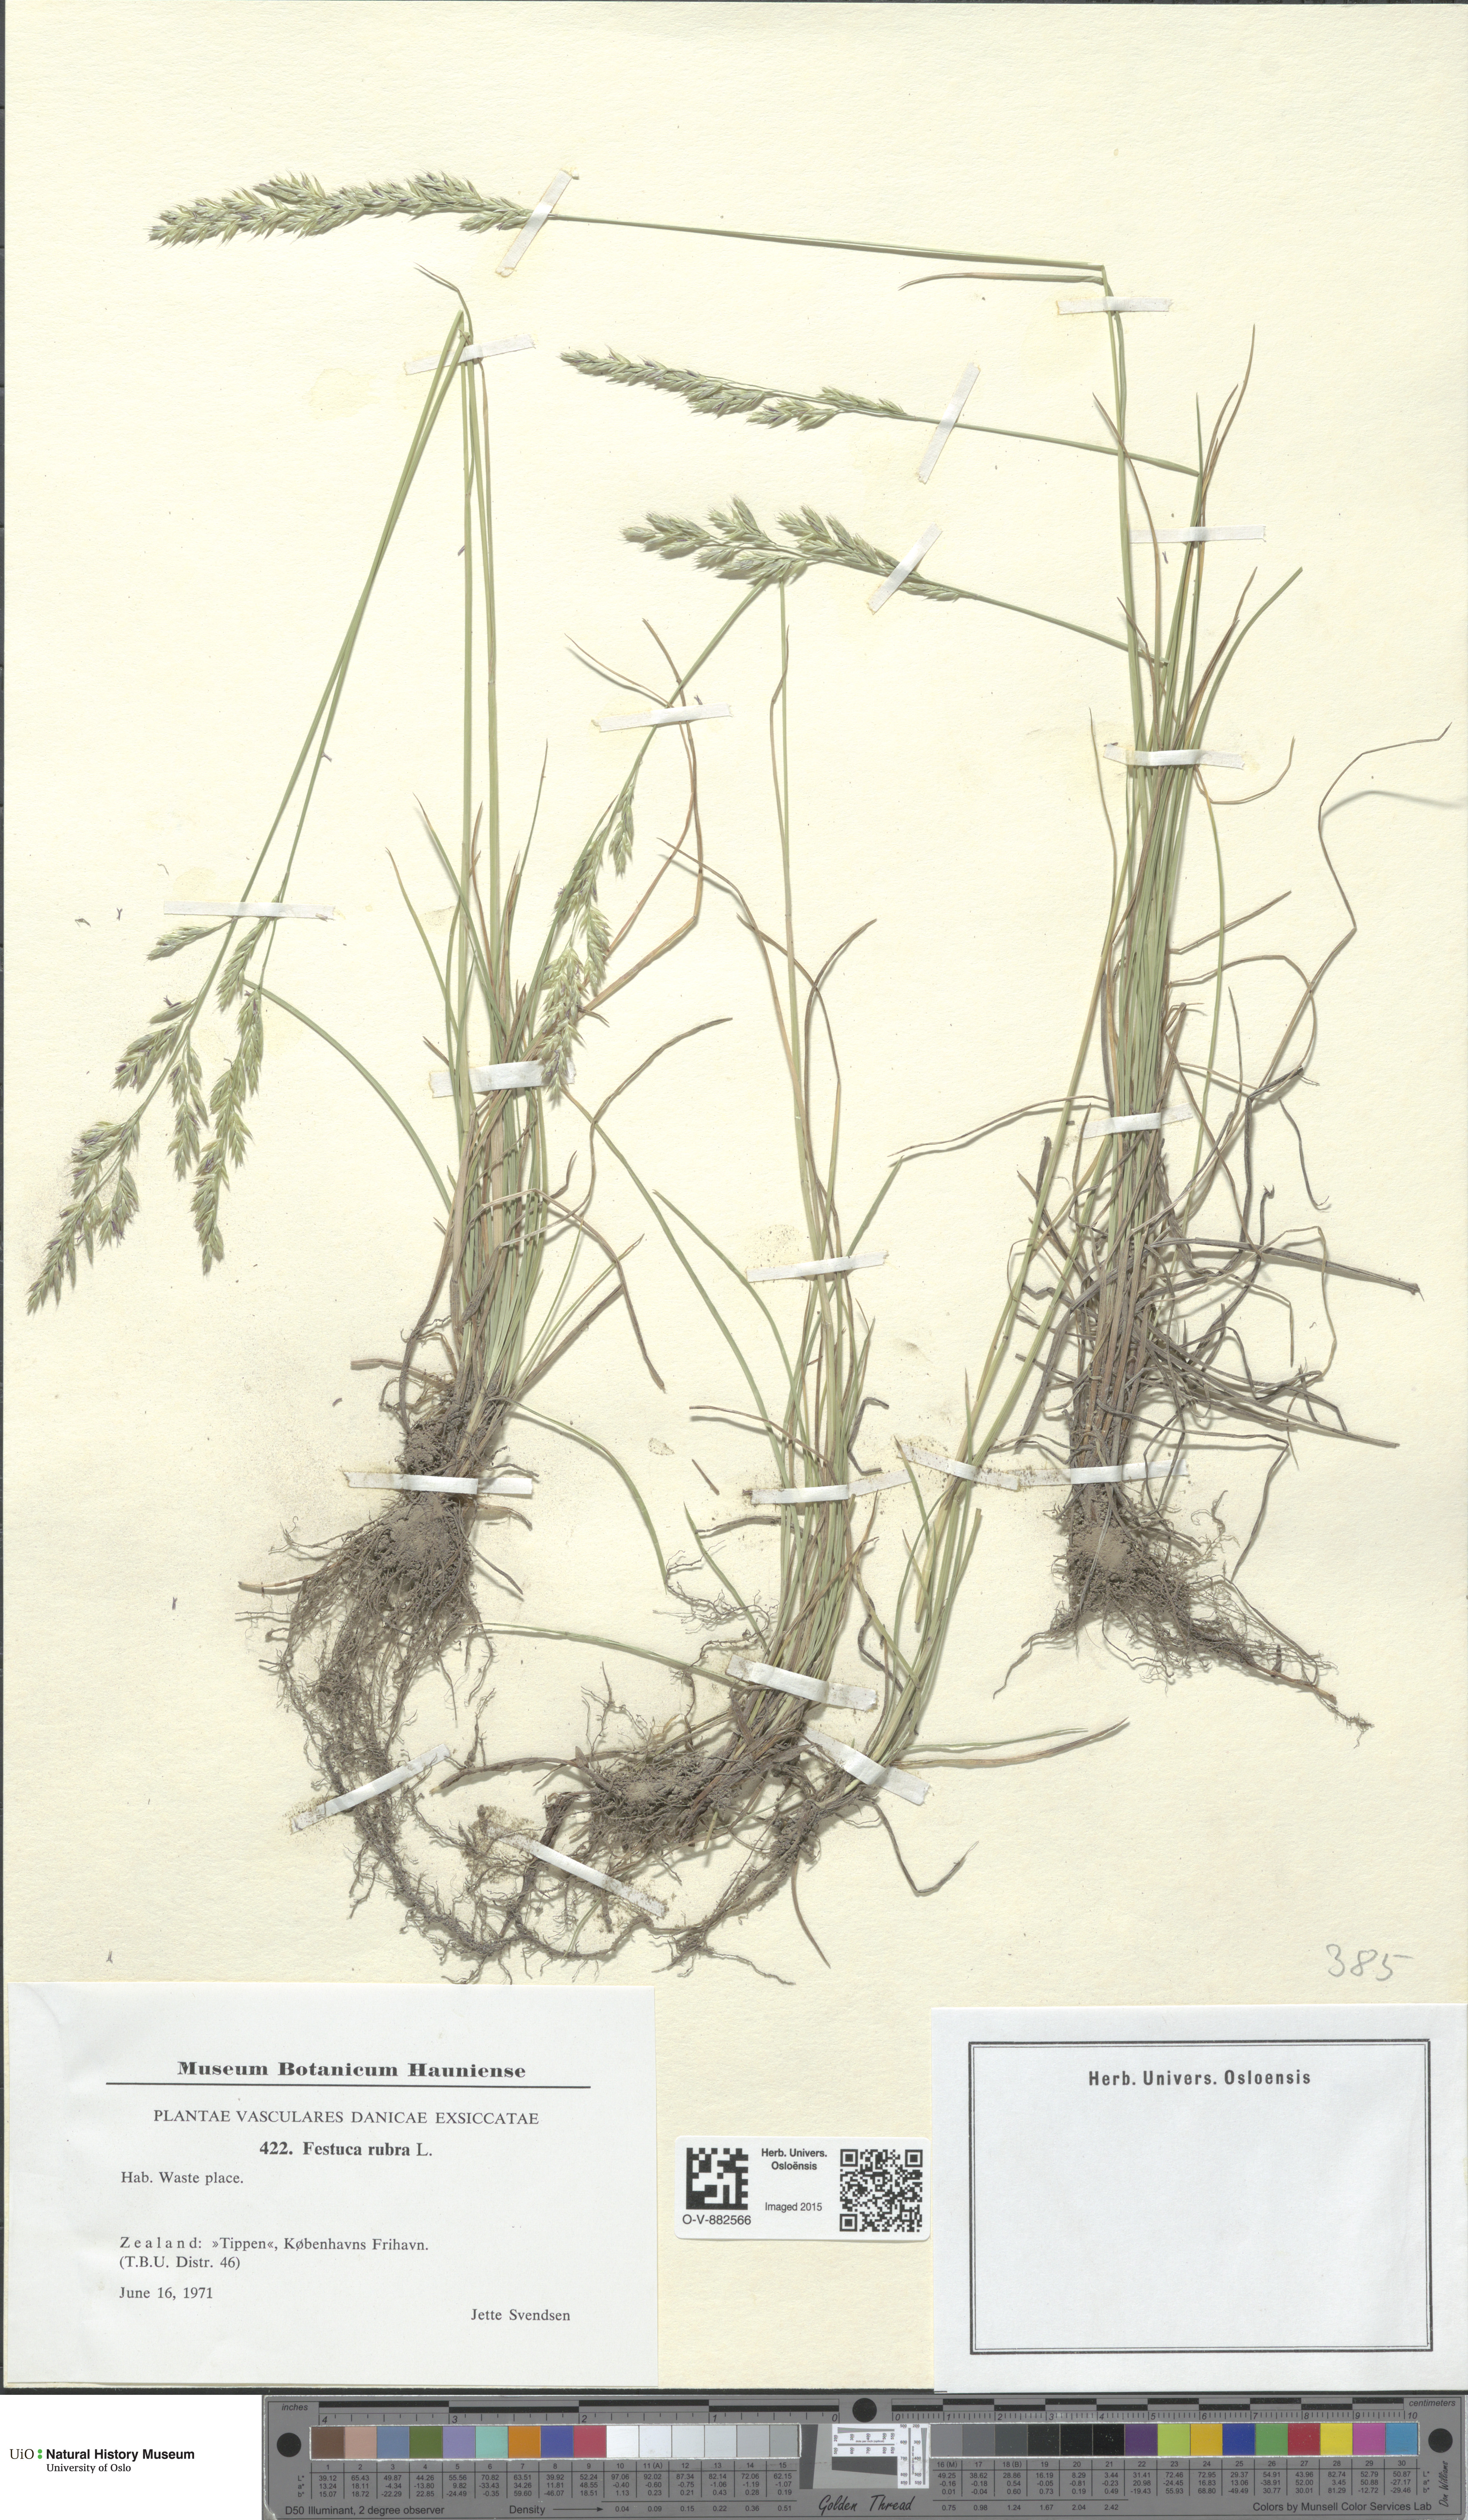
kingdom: Plantae
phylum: Tracheophyta
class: Liliopsida
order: Poales
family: Poaceae
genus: Festuca
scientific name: Festuca rubra
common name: Red fescue
